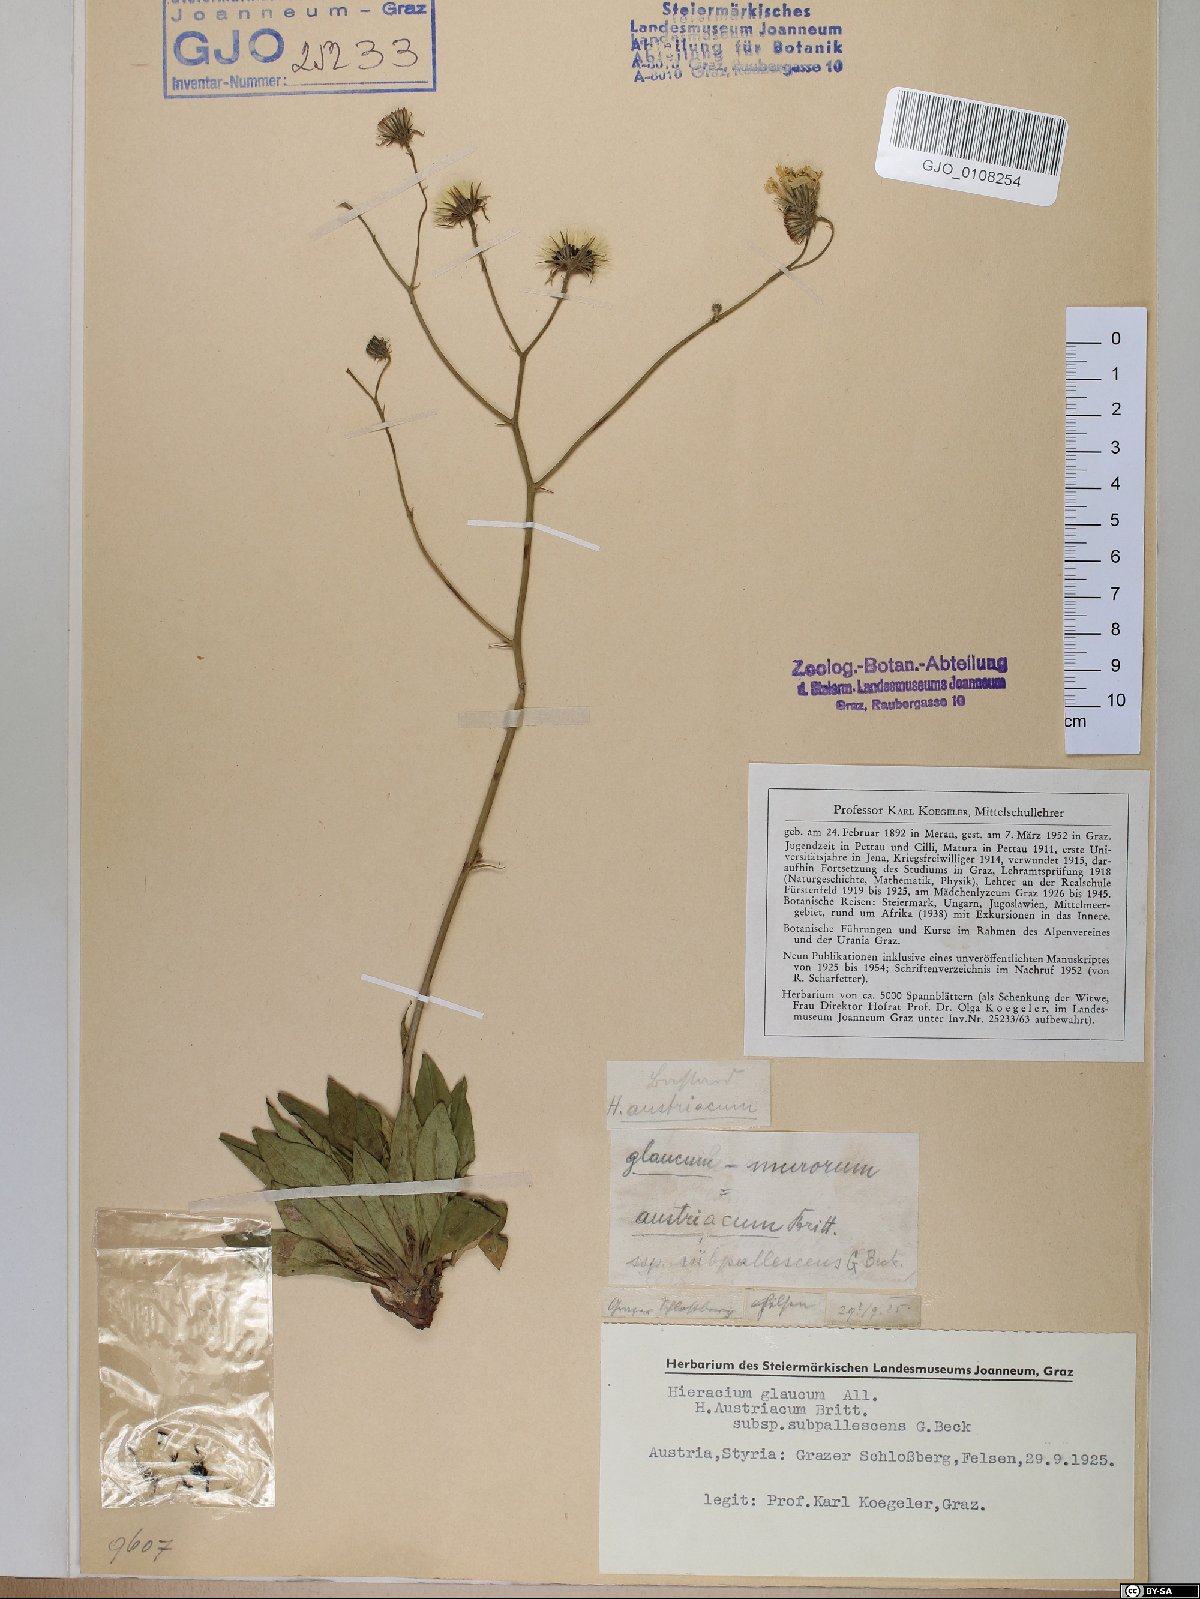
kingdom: Plantae
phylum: Tracheophyta
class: Magnoliopsida
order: Asterales
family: Asteraceae
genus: Hieracium
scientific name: Hieracium austriacum
